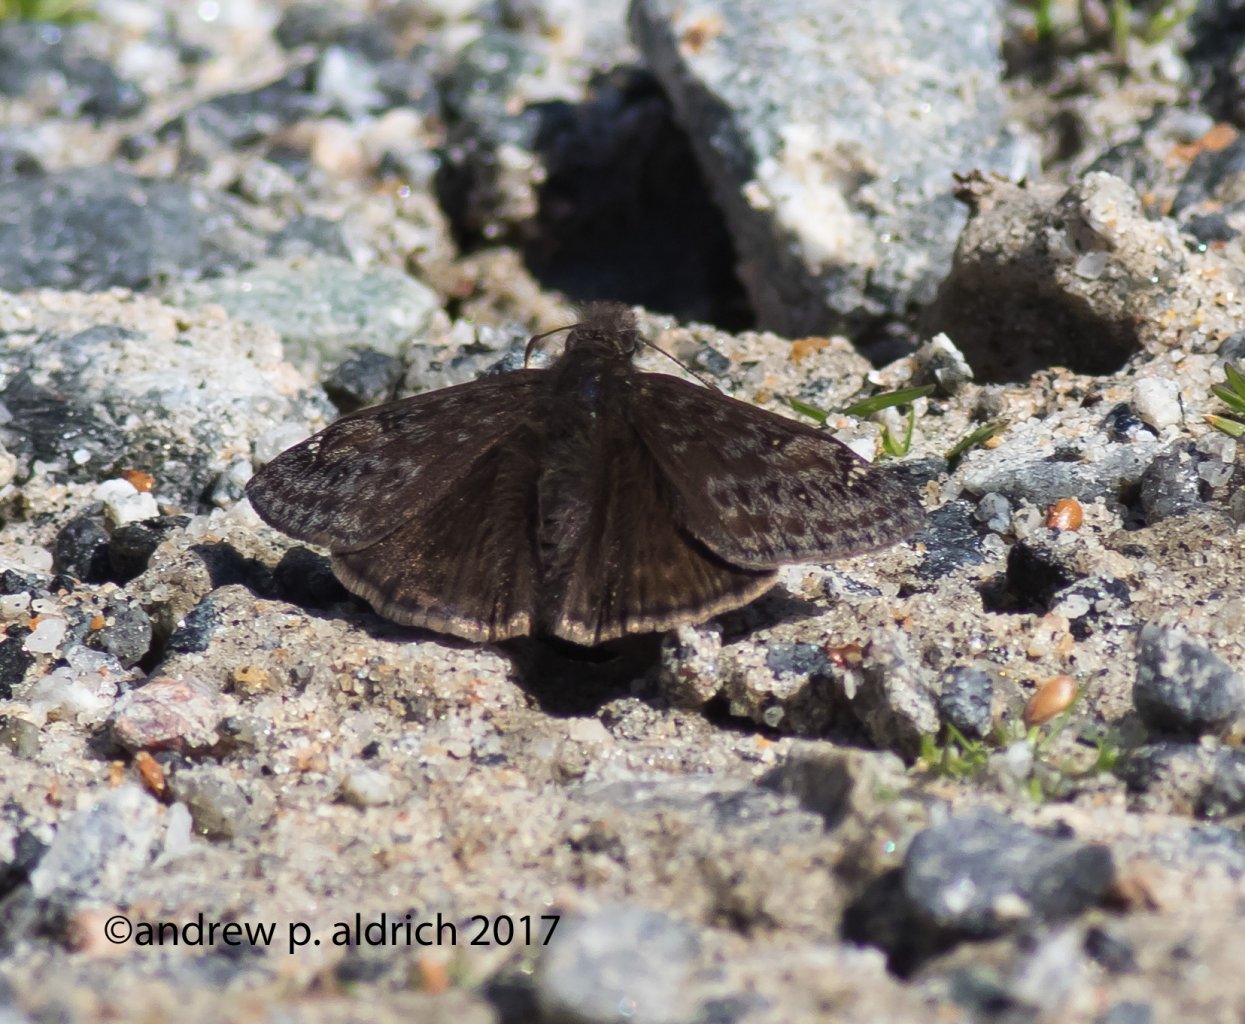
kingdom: Animalia
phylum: Arthropoda
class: Insecta
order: Lepidoptera
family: Hesperiidae
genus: Gesta
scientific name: Gesta
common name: Juvenal's Duskywing
